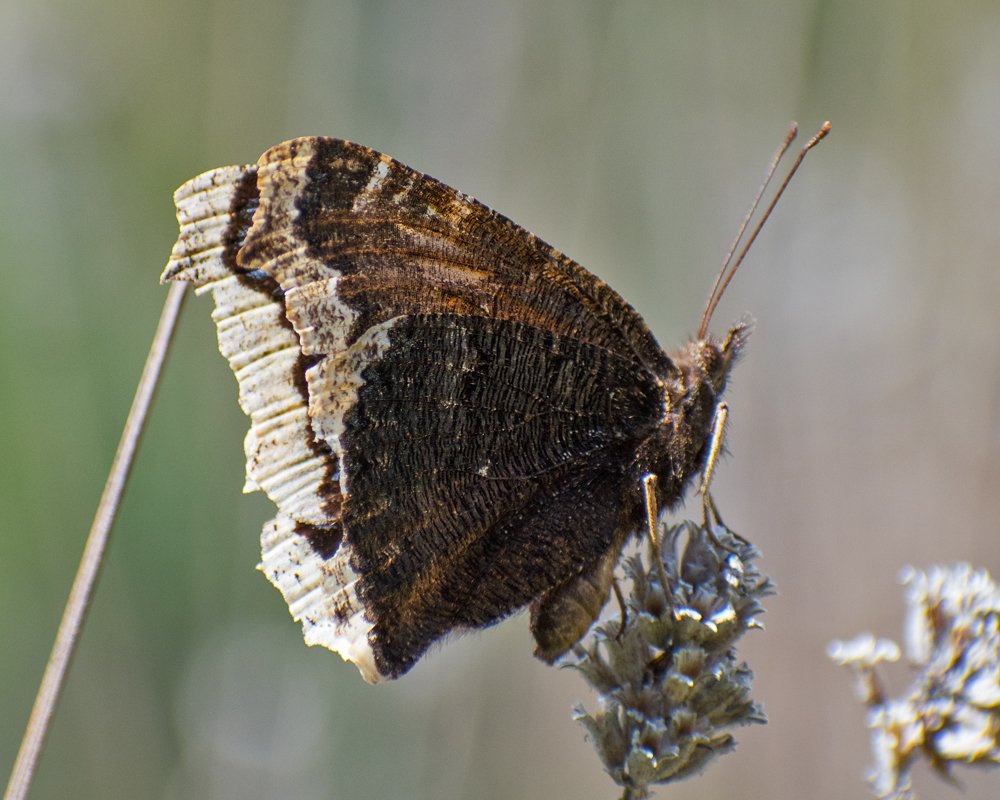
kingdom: Animalia
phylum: Arthropoda
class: Insecta
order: Lepidoptera
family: Nymphalidae
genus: Nymphalis
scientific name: Nymphalis antiopa
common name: Mourning Cloak
